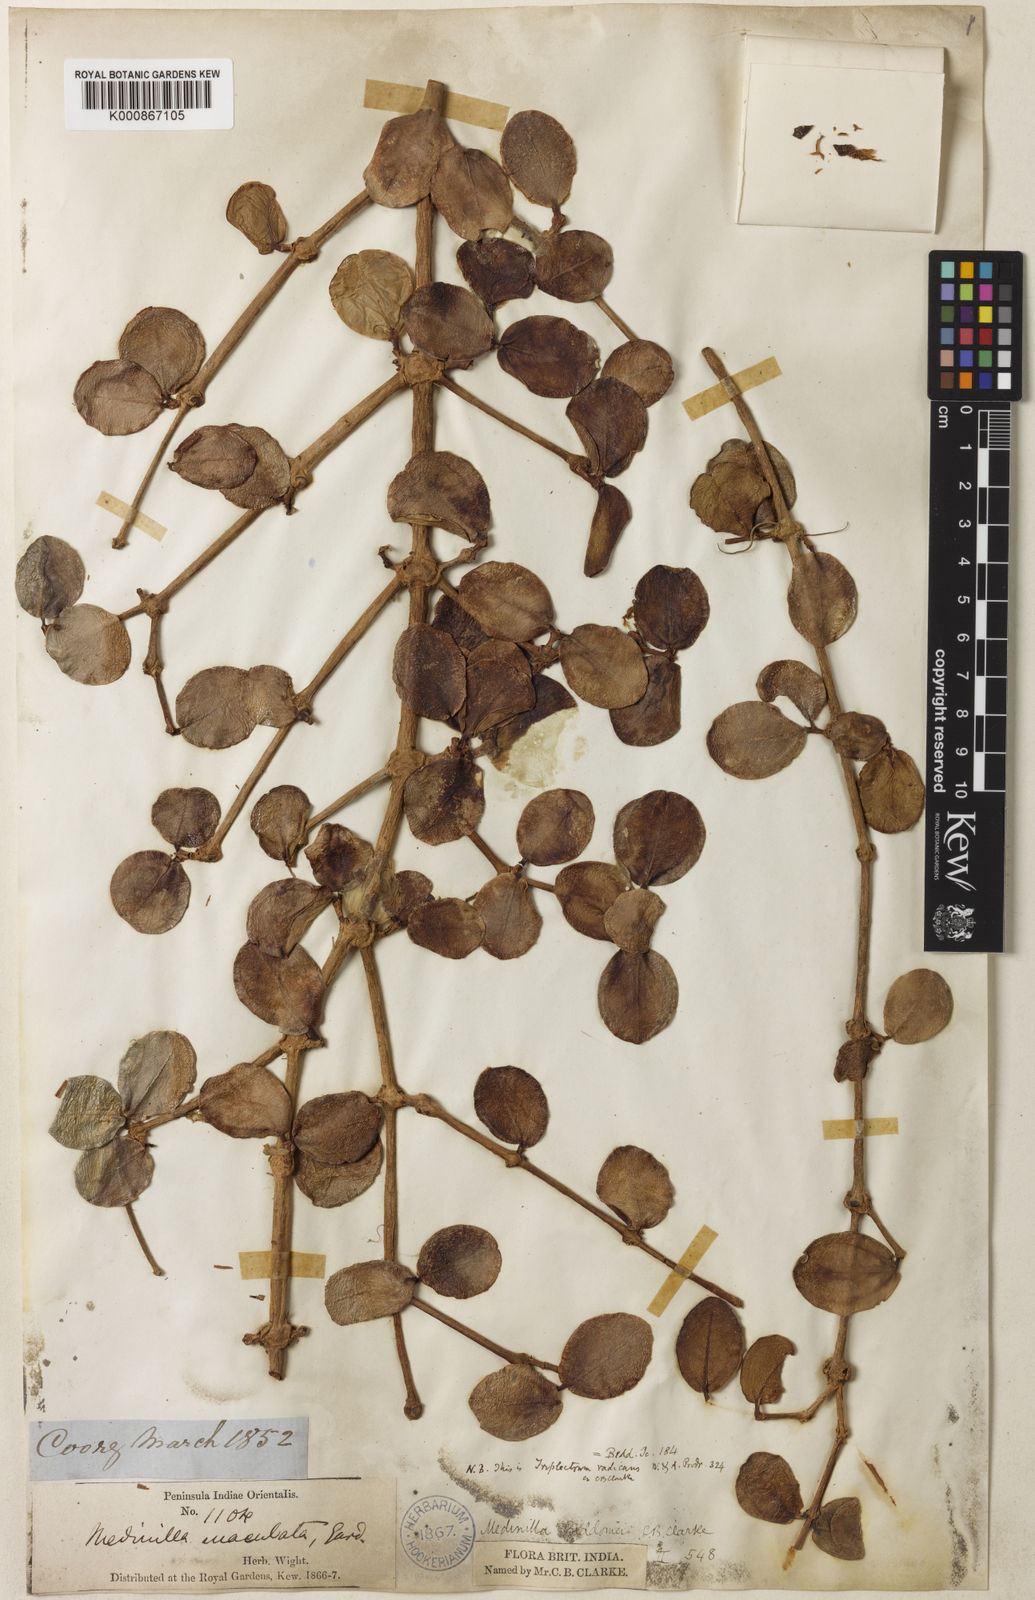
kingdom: Plantae
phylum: Tracheophyta
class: Magnoliopsida
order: Myrtales
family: Melastomataceae
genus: Medinilla
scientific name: Medinilla beddomei
